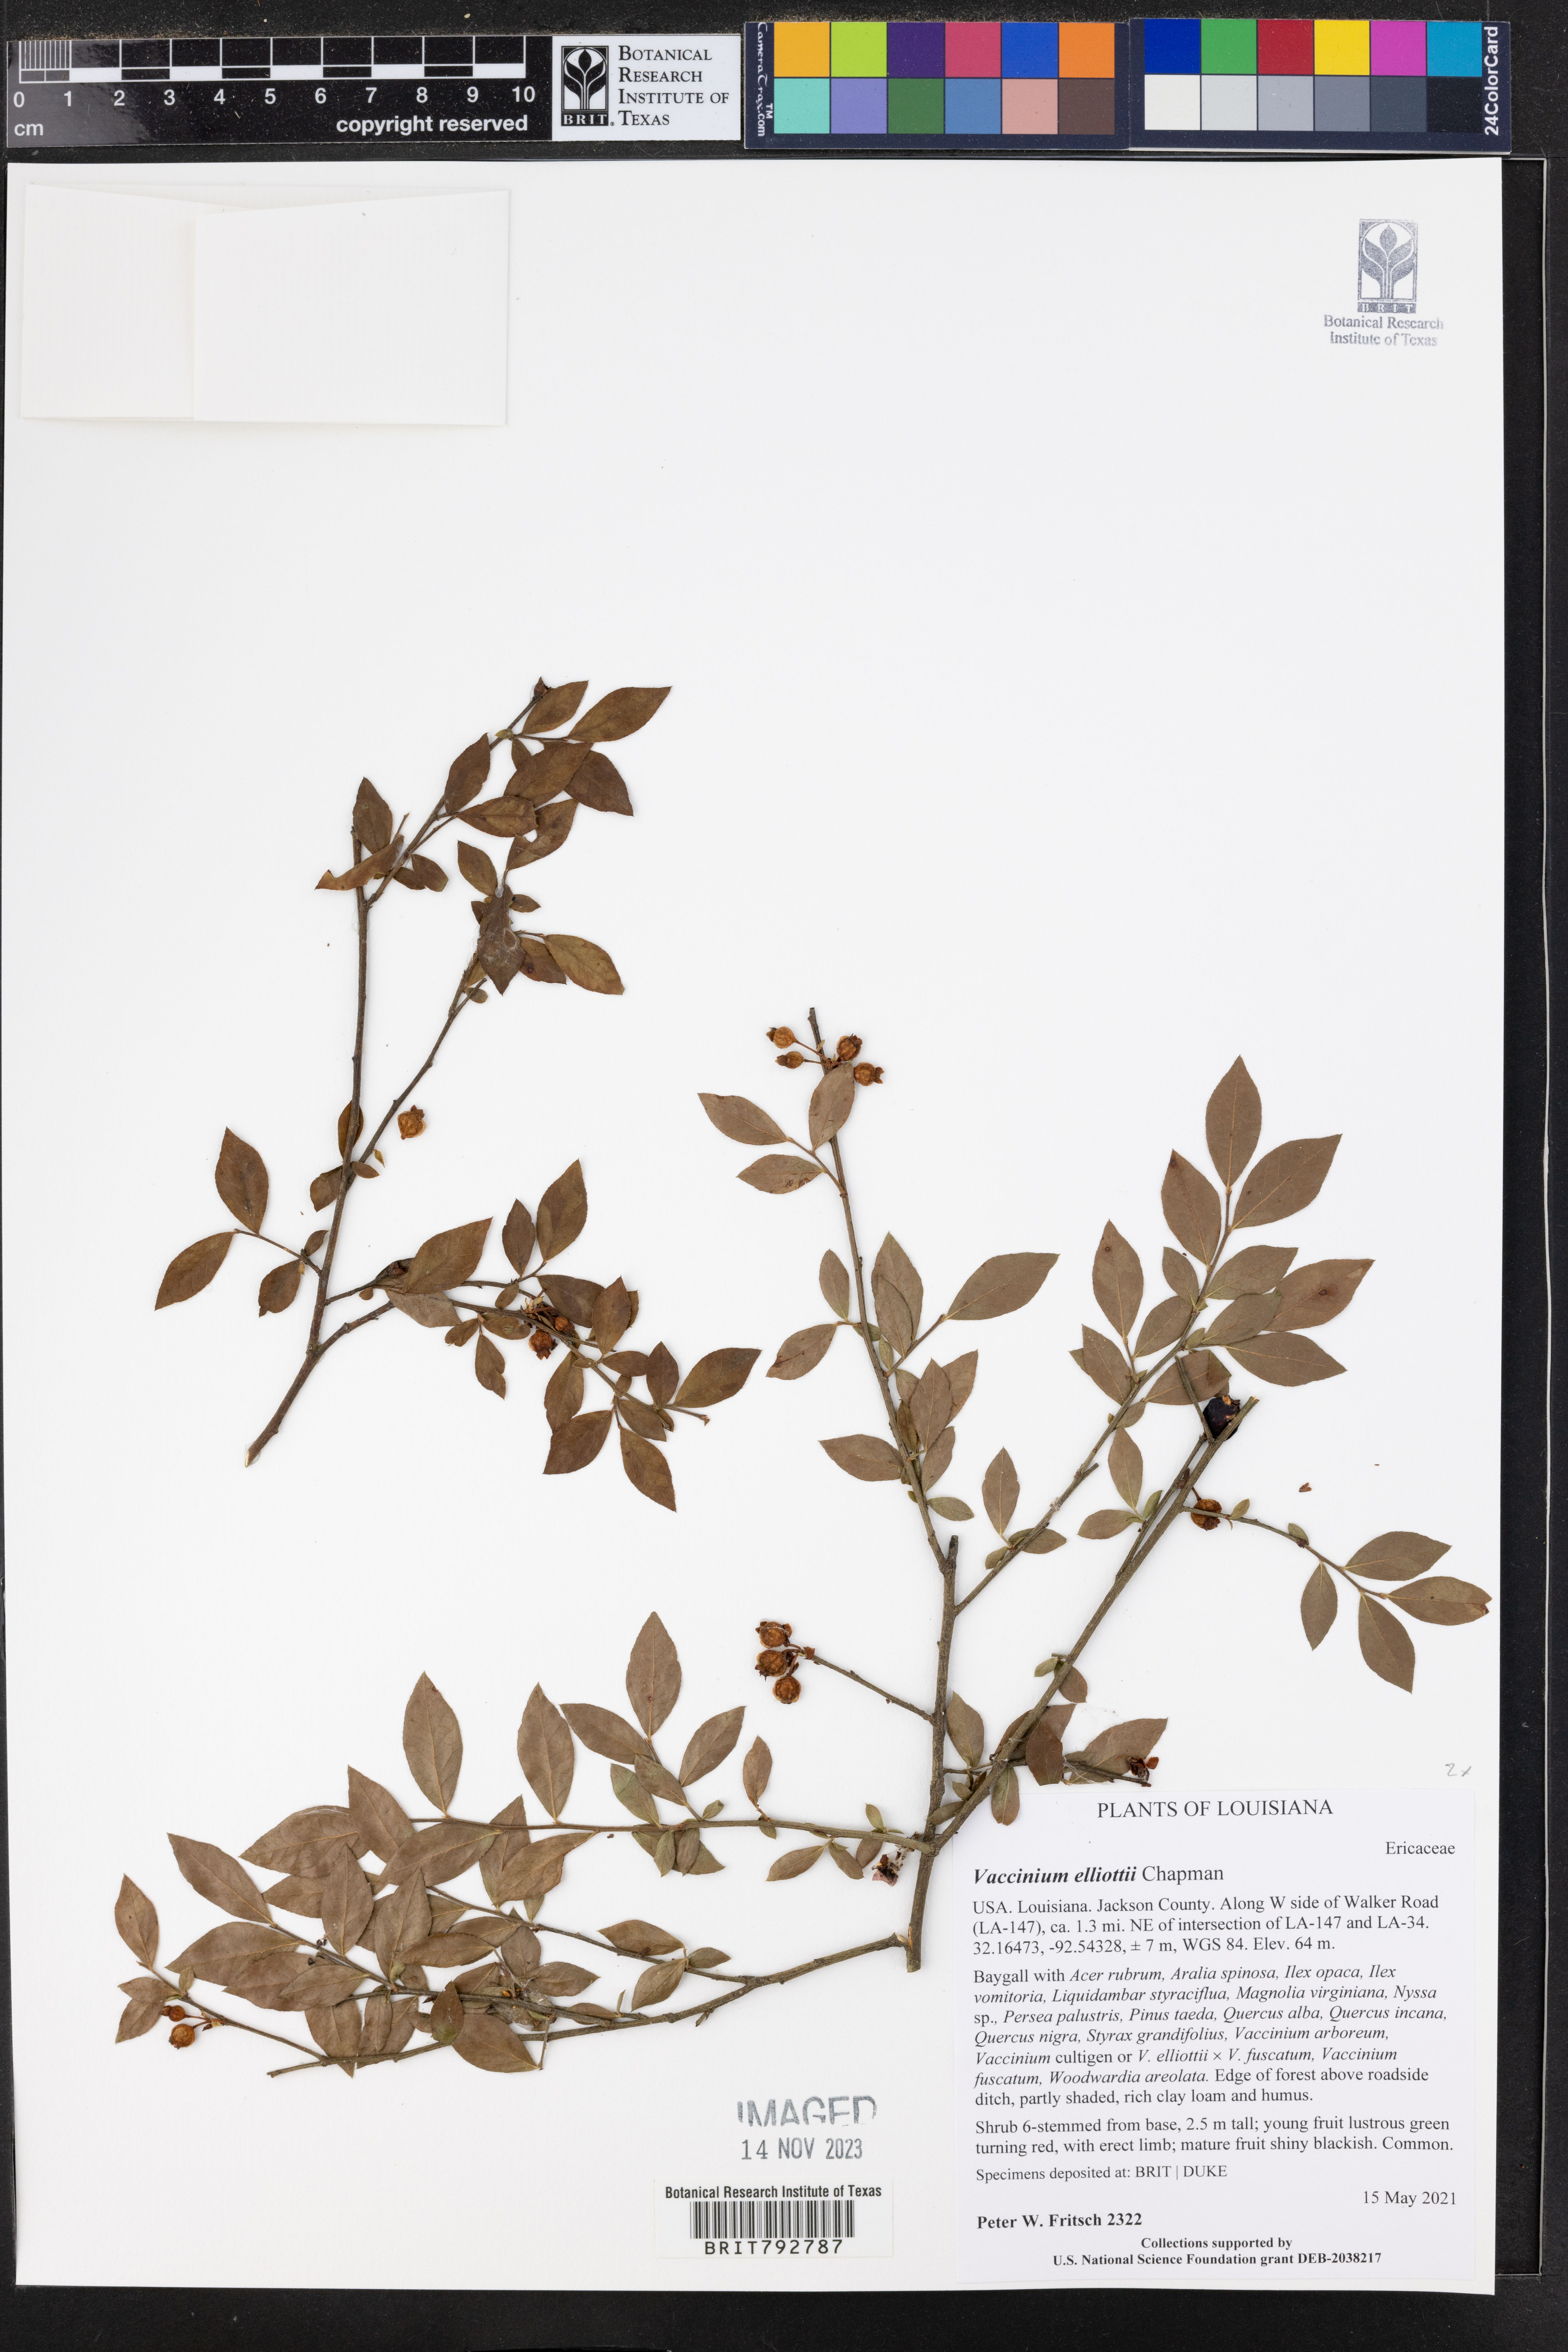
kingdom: Plantae
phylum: Tracheophyta
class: Magnoliopsida
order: Ericales
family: Ericaceae
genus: Vaccinium
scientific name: Vaccinium corymbosum
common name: Blueberry
